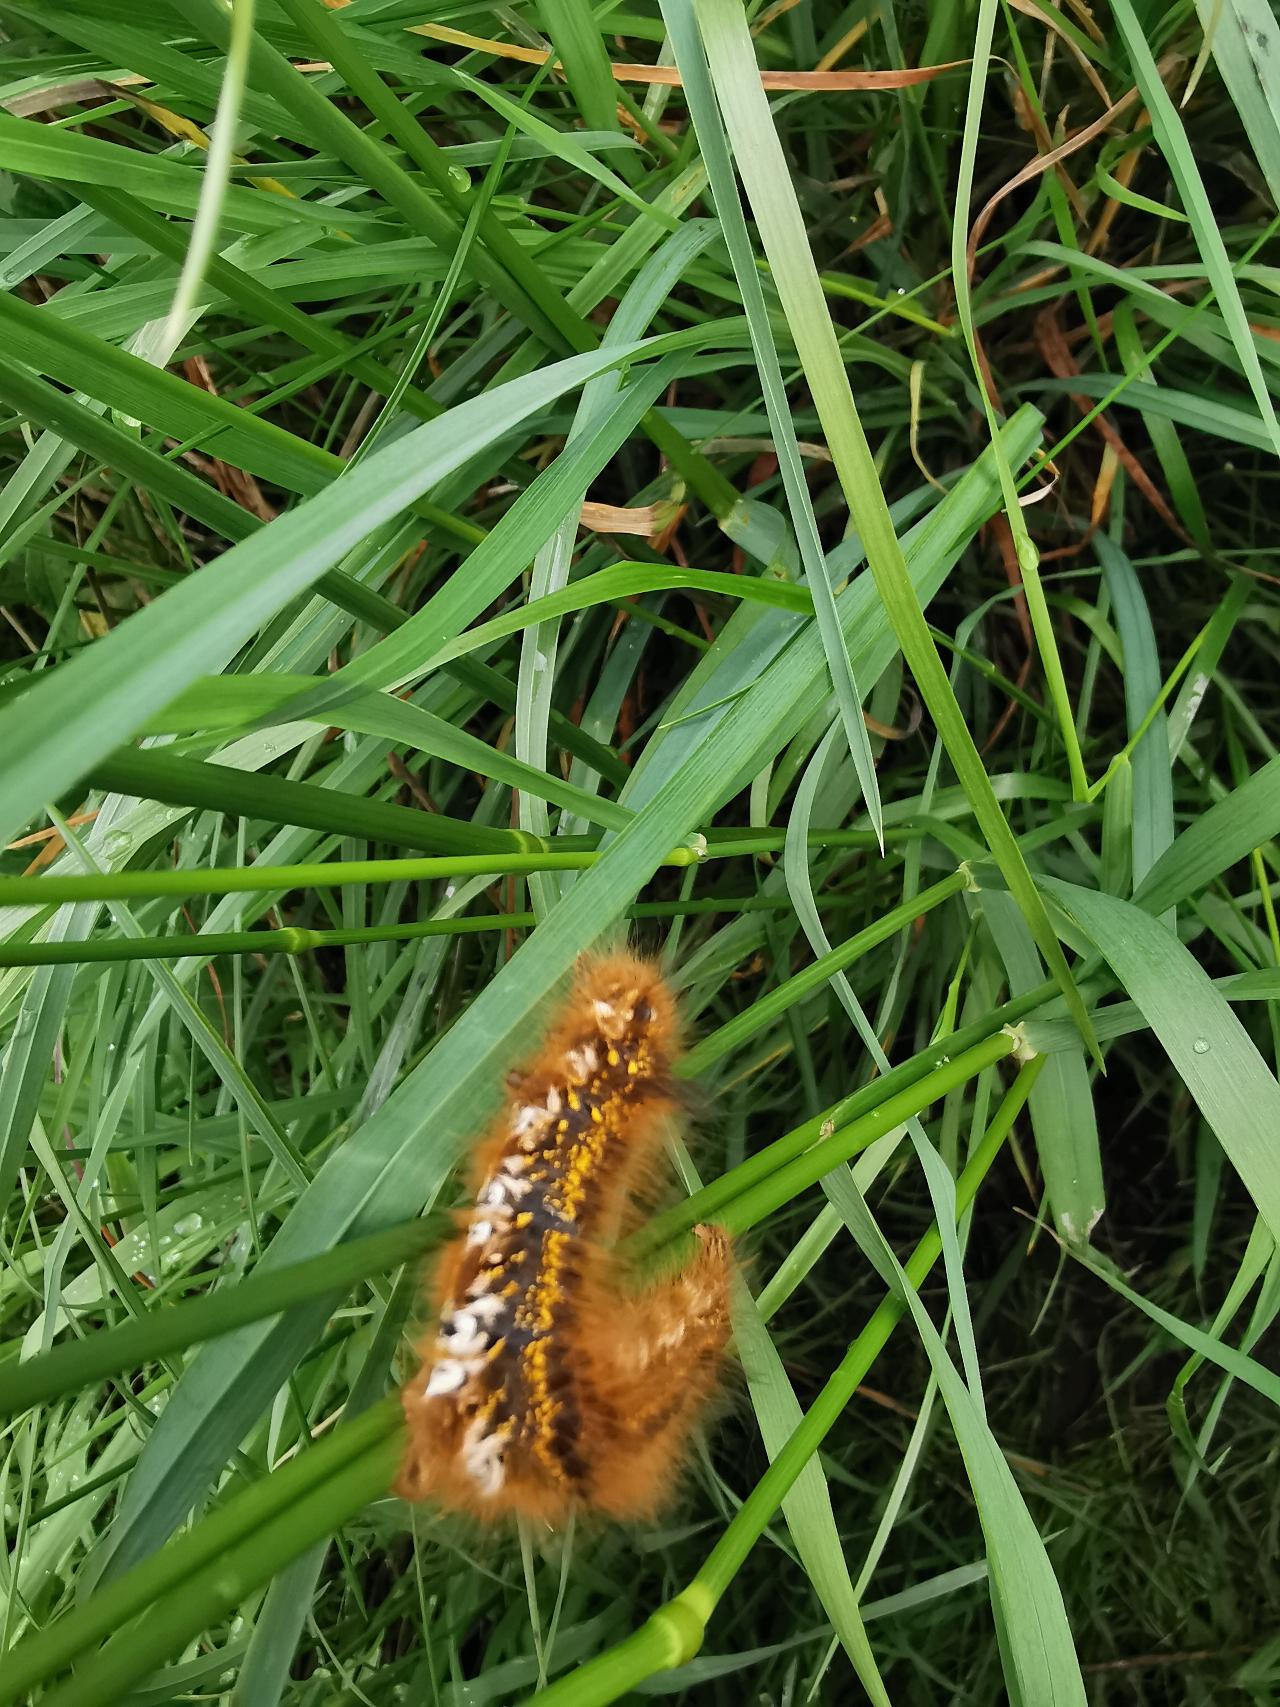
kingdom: Animalia
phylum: Arthropoda
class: Insecta
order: Lepidoptera
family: Lasiocampidae
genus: Euthrix
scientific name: Euthrix potatoria
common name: Græsspinder
